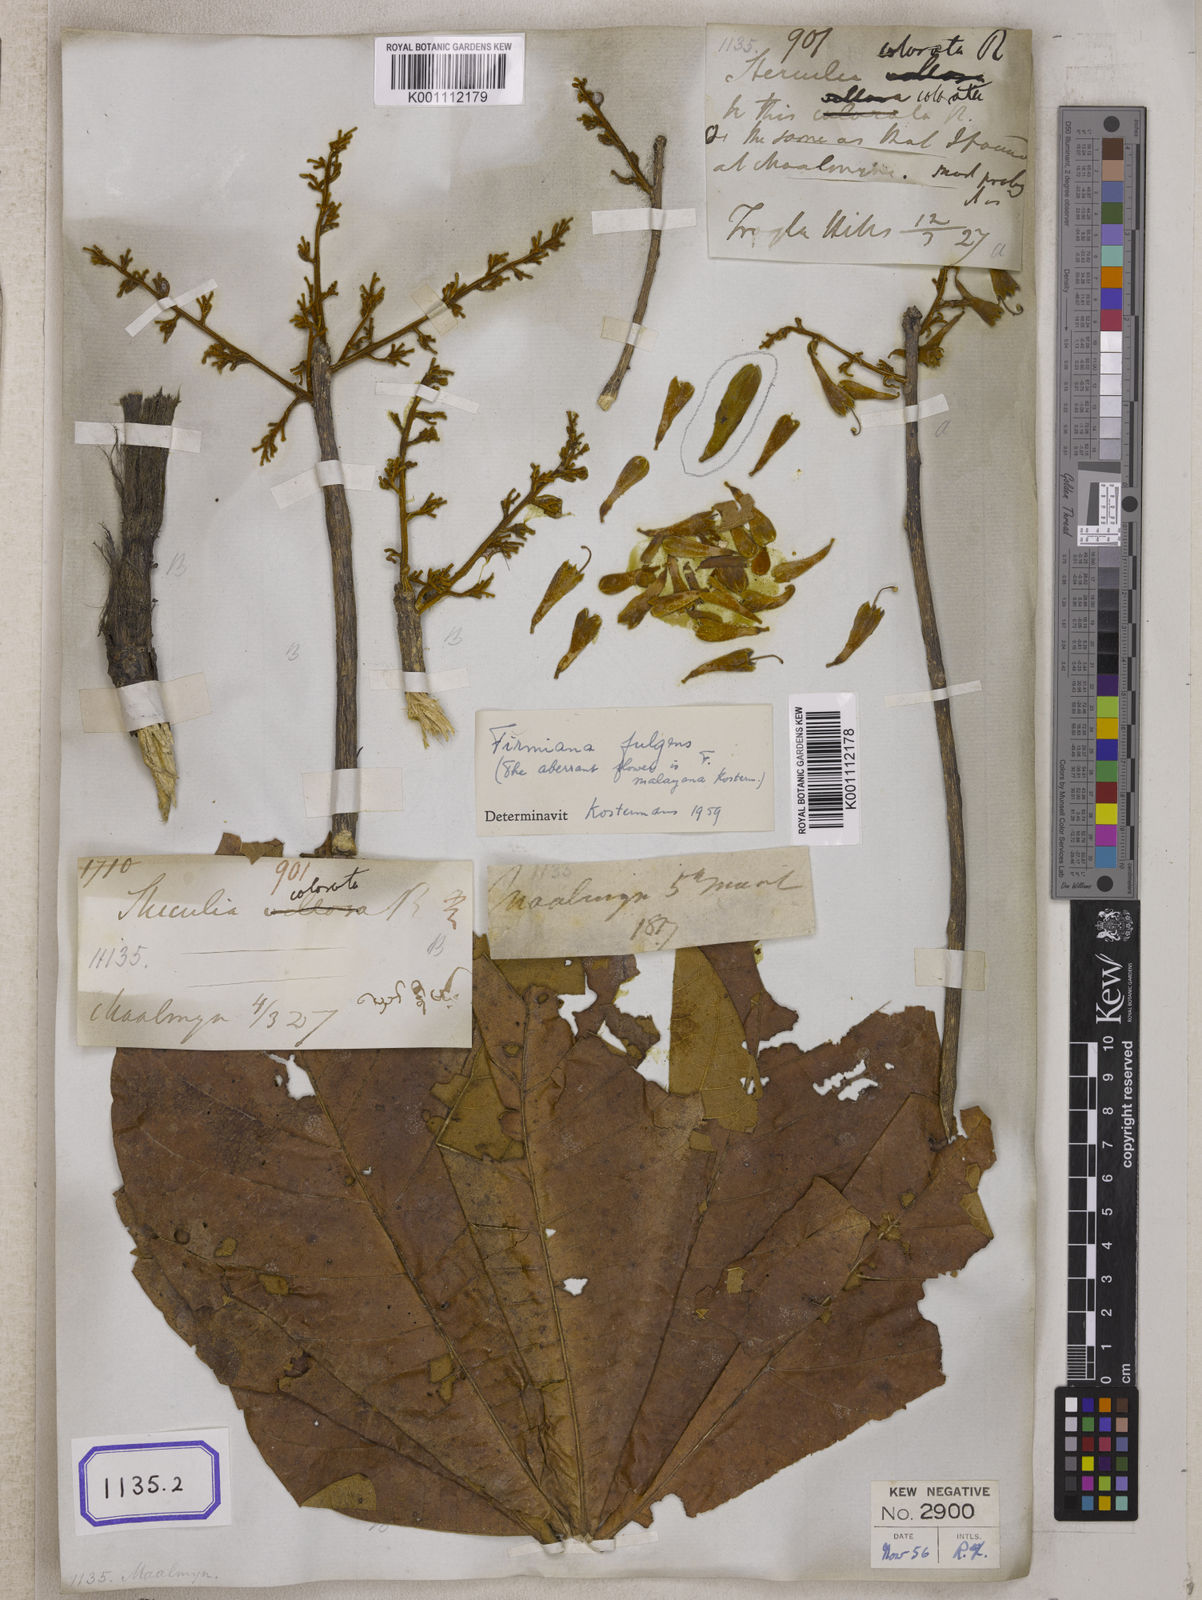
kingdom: Plantae
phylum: Tracheophyta
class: Magnoliopsida
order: Malvales
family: Malvaceae
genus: Sterculia
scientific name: Sterculia
